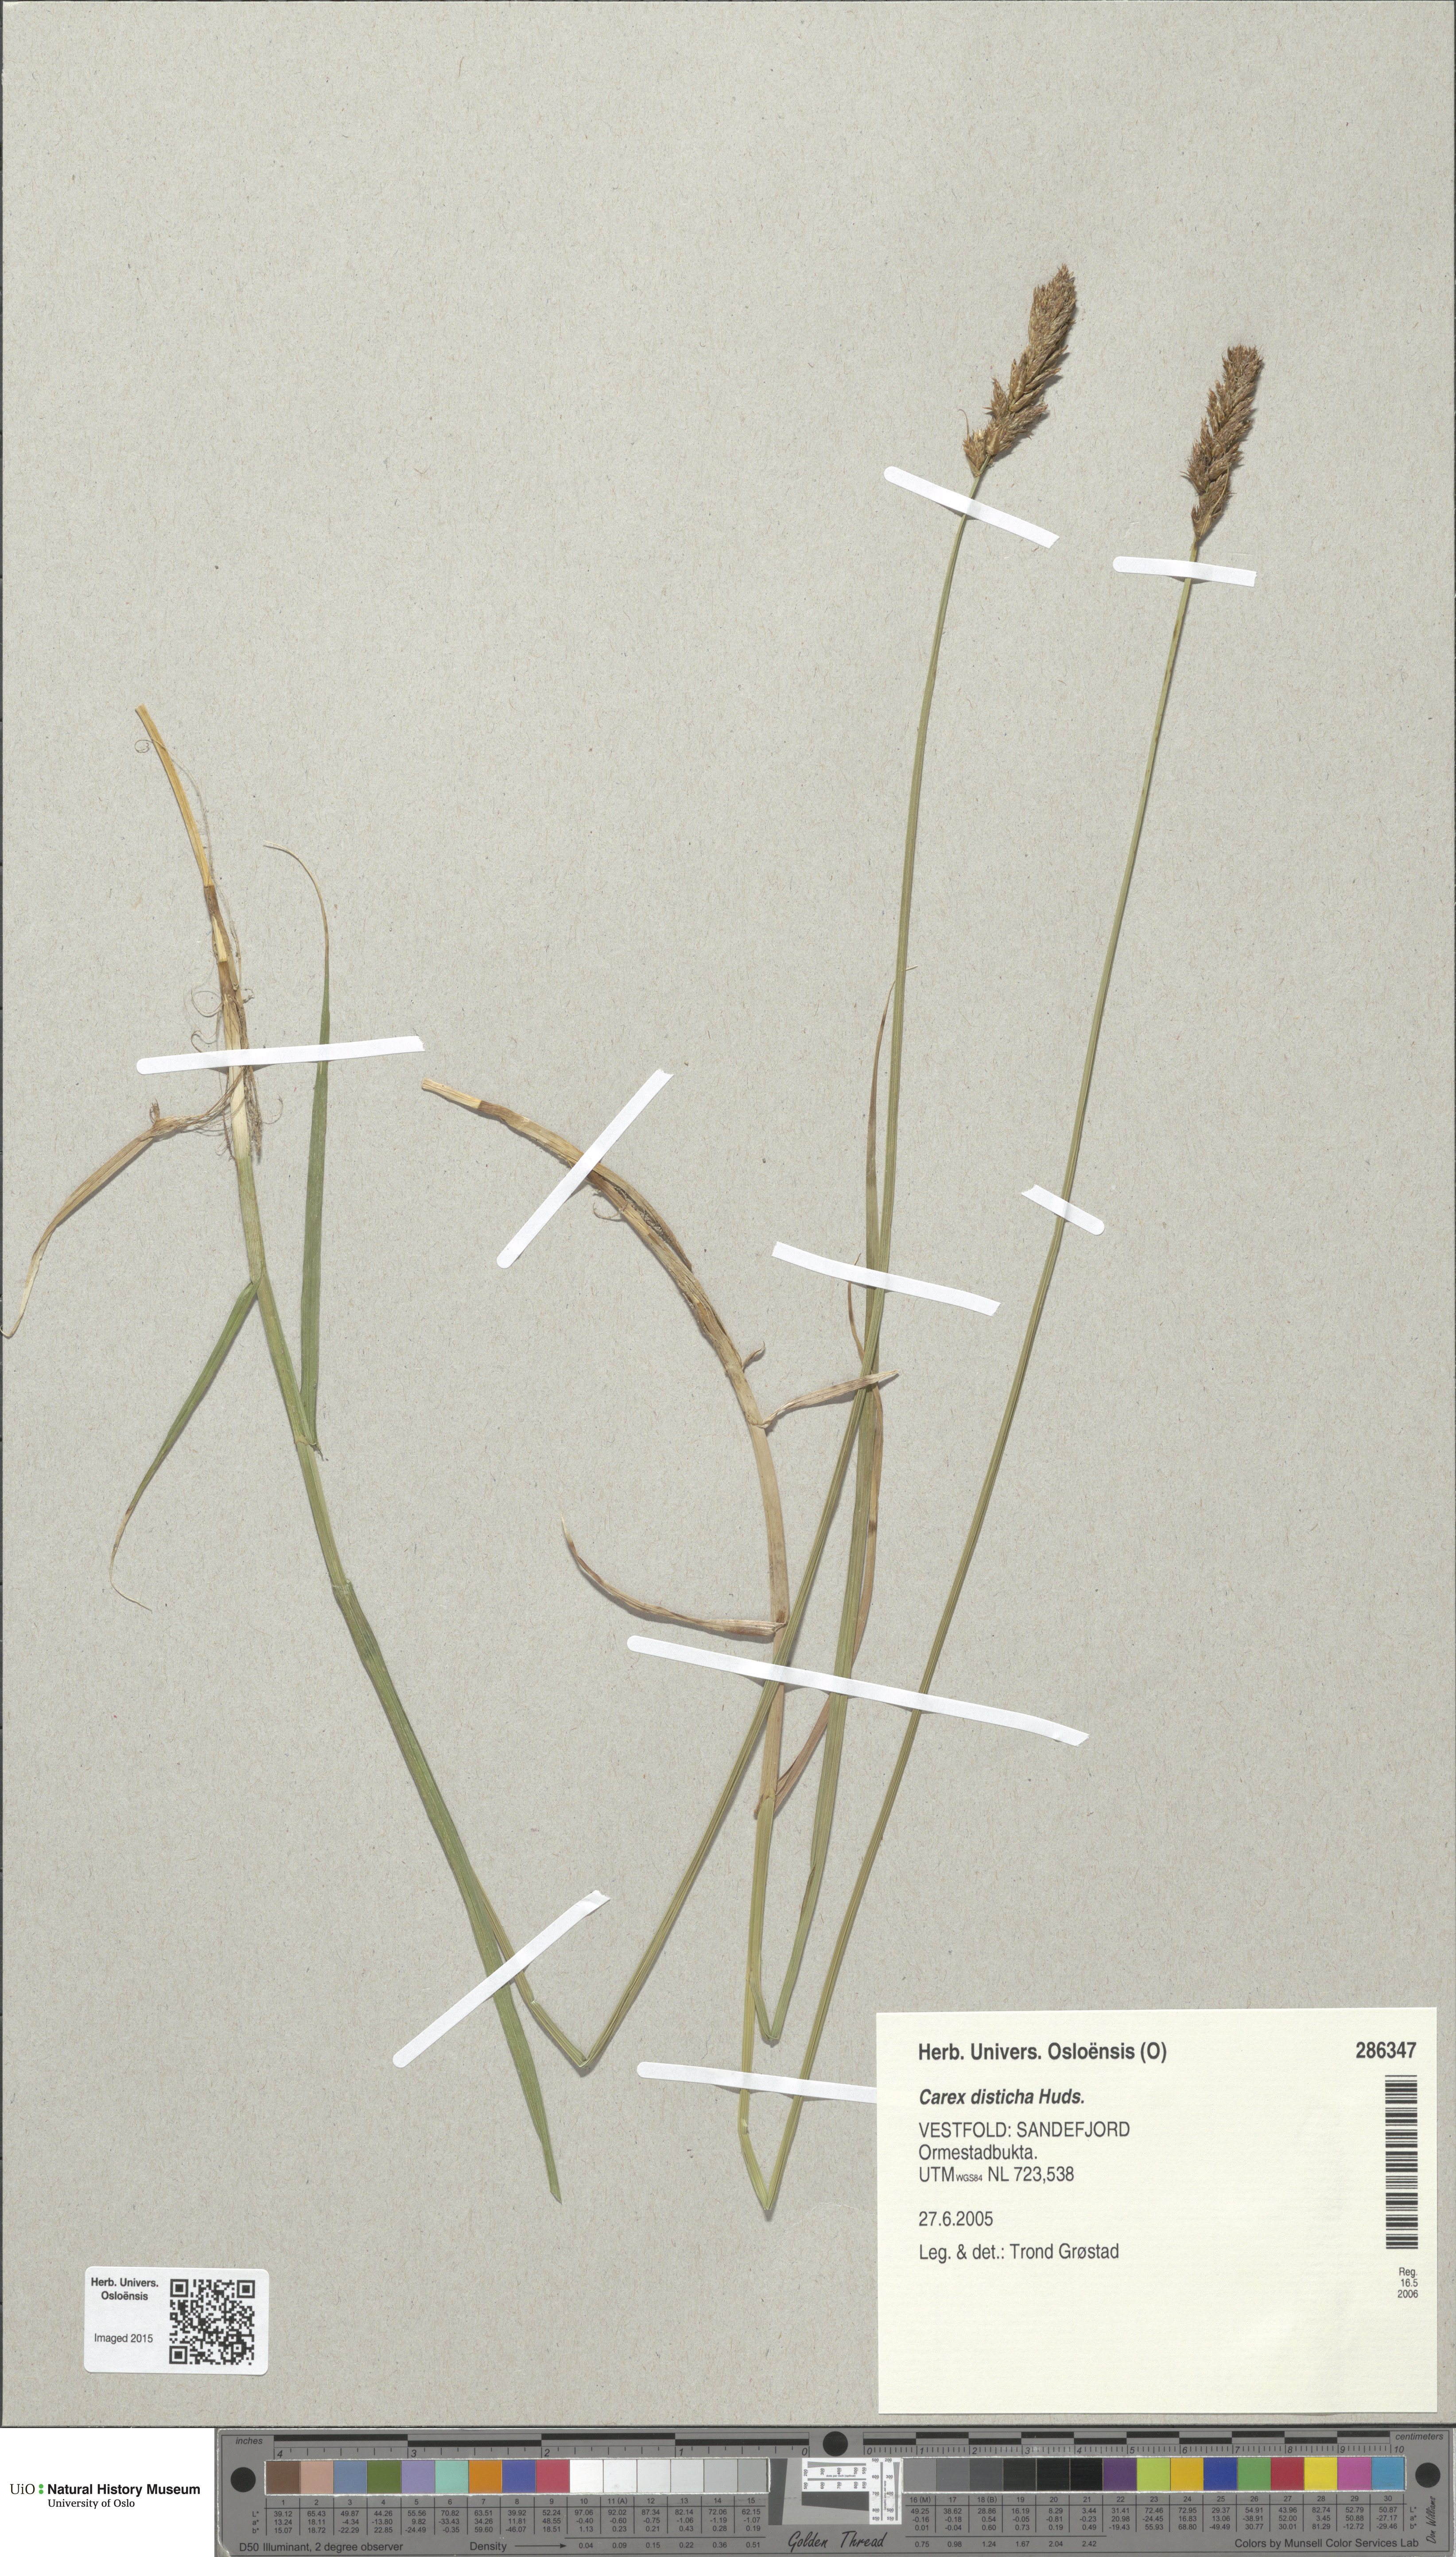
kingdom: Plantae
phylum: Tracheophyta
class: Liliopsida
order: Poales
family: Cyperaceae
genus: Carex
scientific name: Carex disticha
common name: Brown sedge
